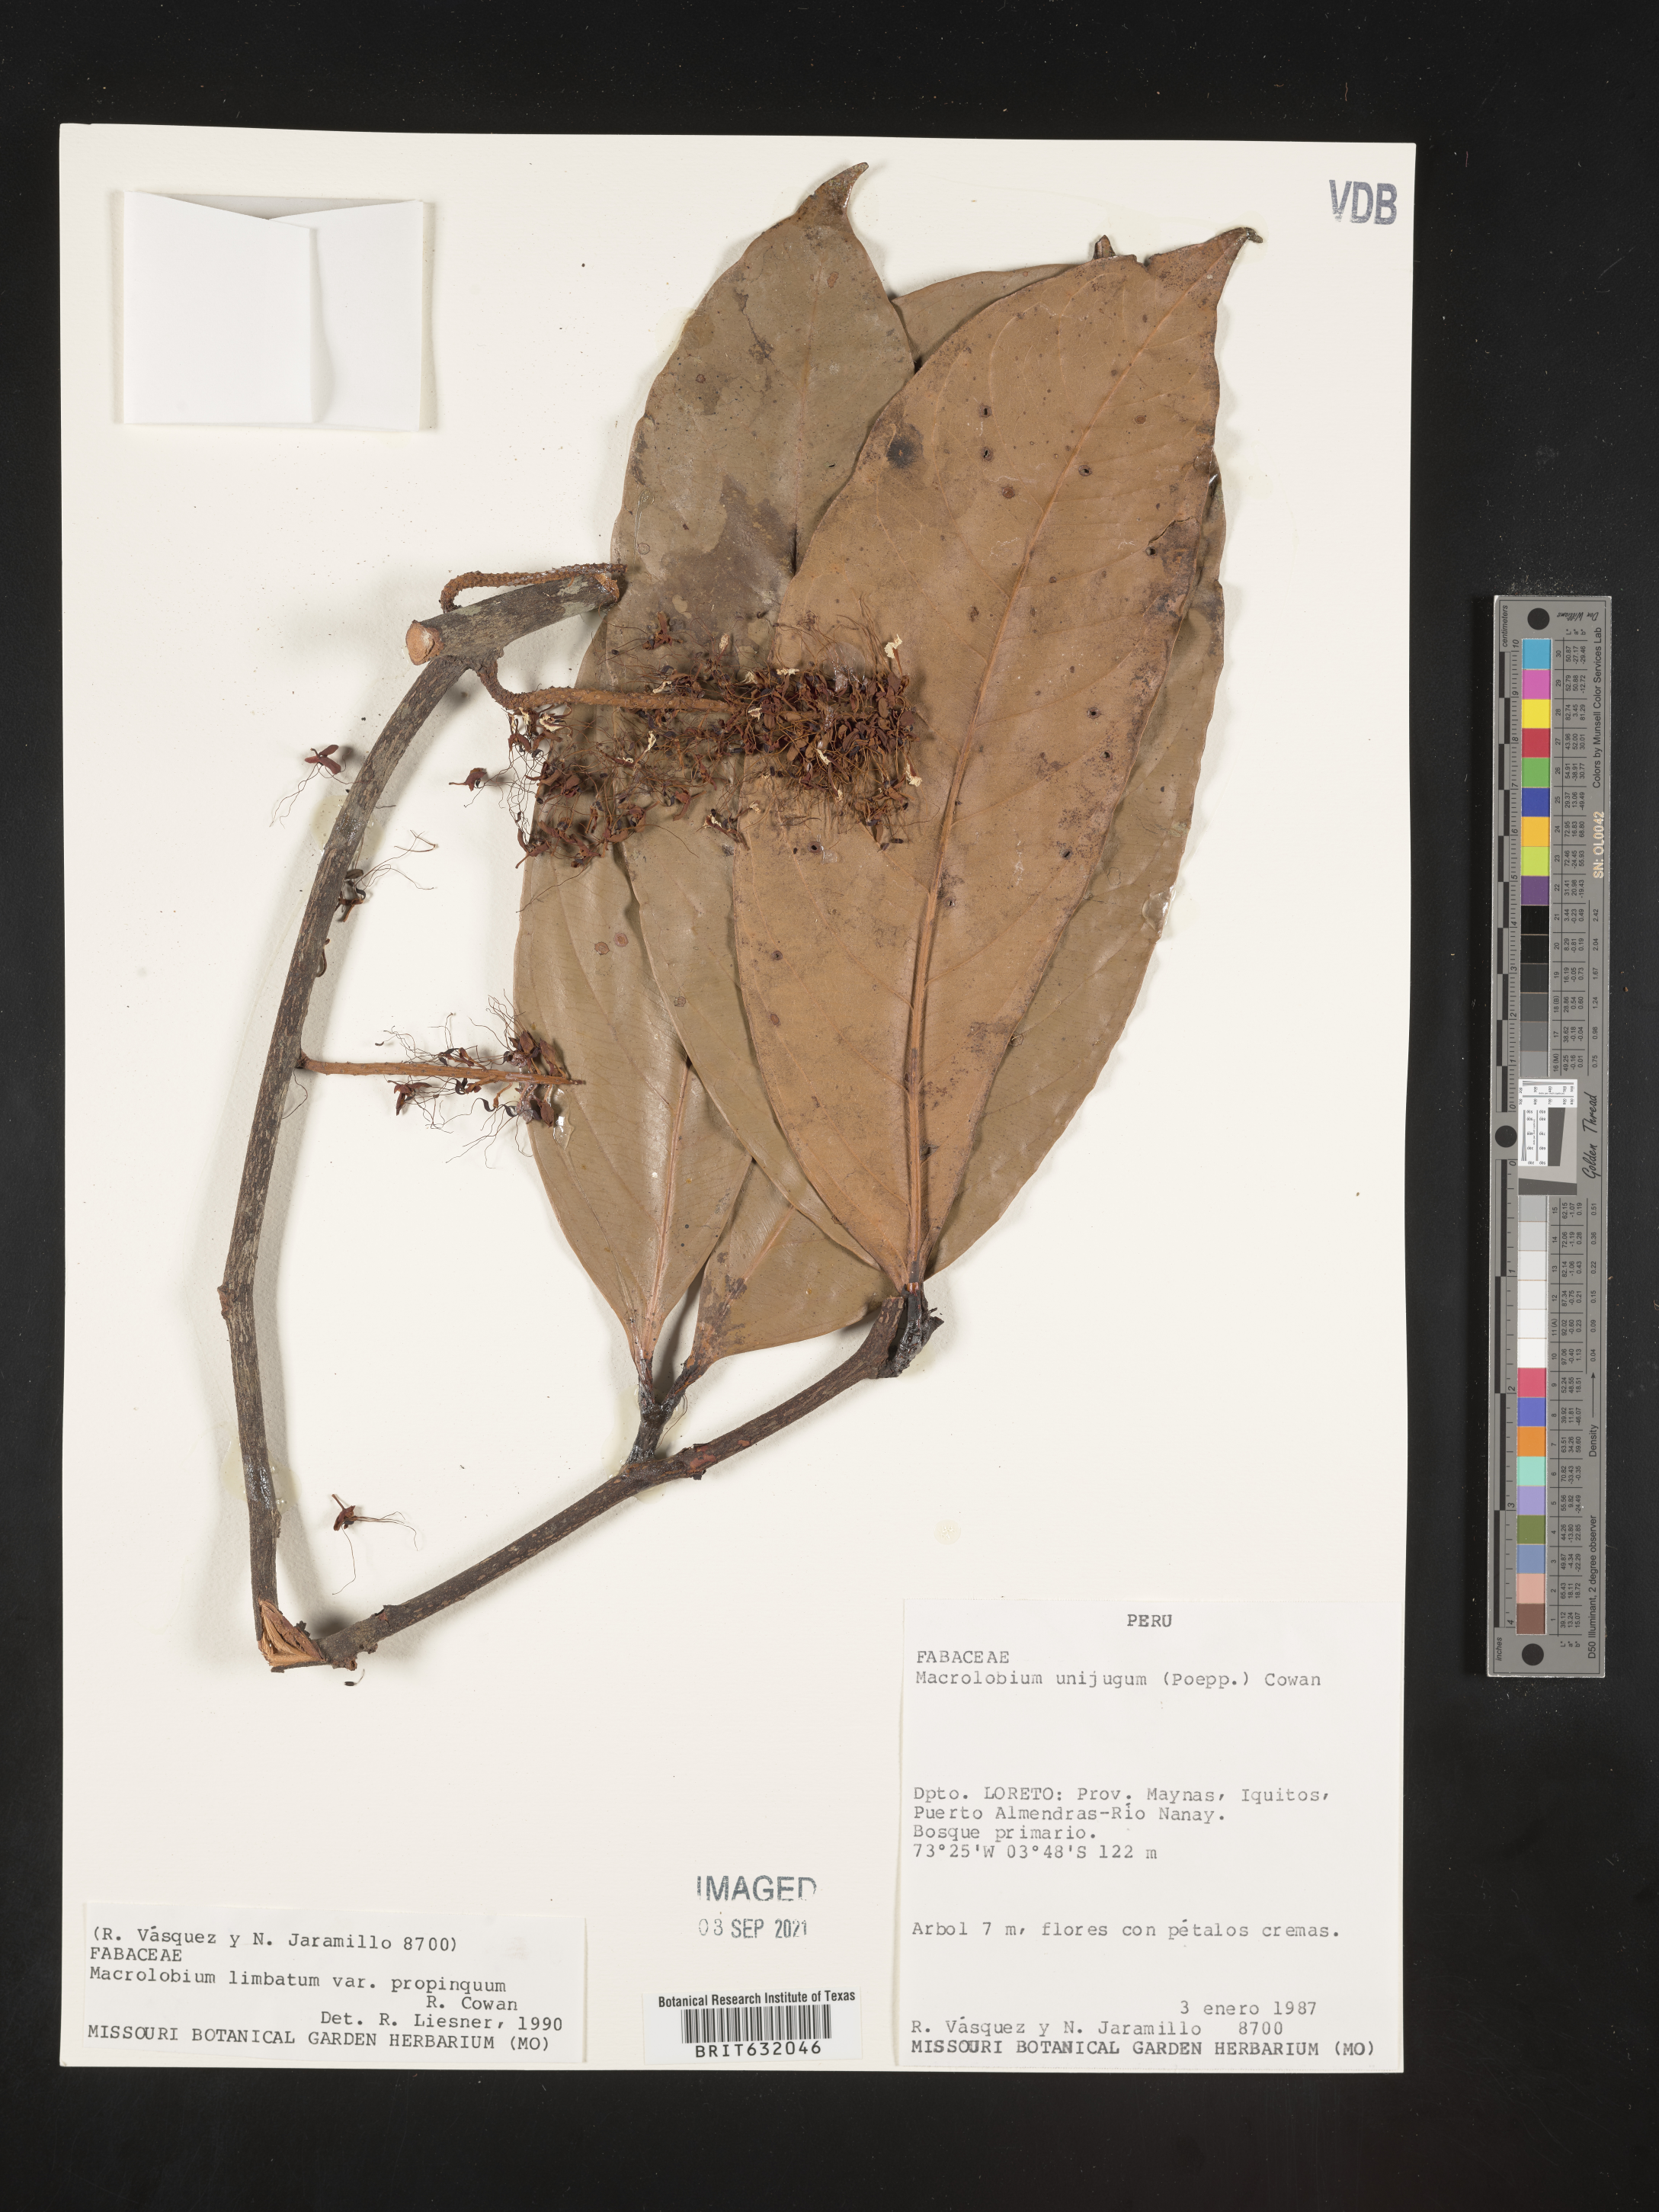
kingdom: Plantae
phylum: Tracheophyta
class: Magnoliopsida
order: Fabales
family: Fabaceae
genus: Macrolobium
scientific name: Macrolobium
